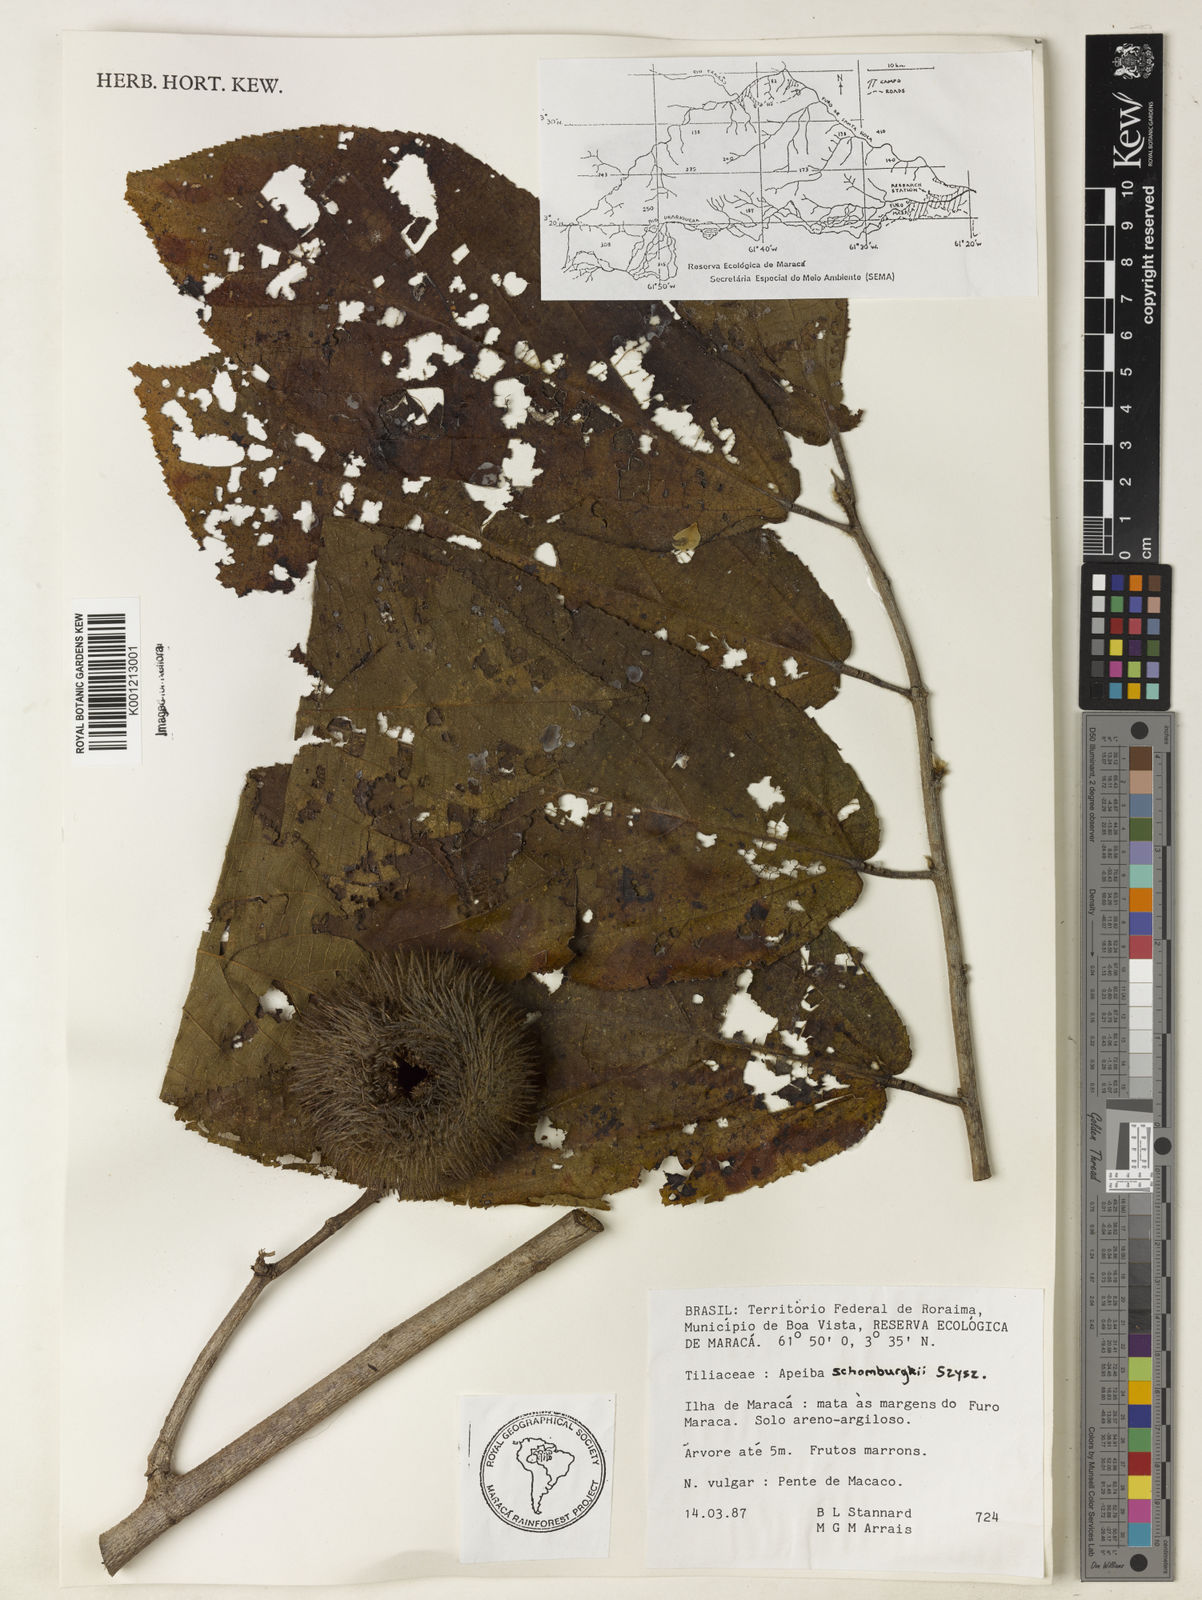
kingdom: Plantae
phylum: Tracheophyta
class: Magnoliopsida
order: Malvales
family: Malvaceae
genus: Apeiba
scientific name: Apeiba schomburgkii
